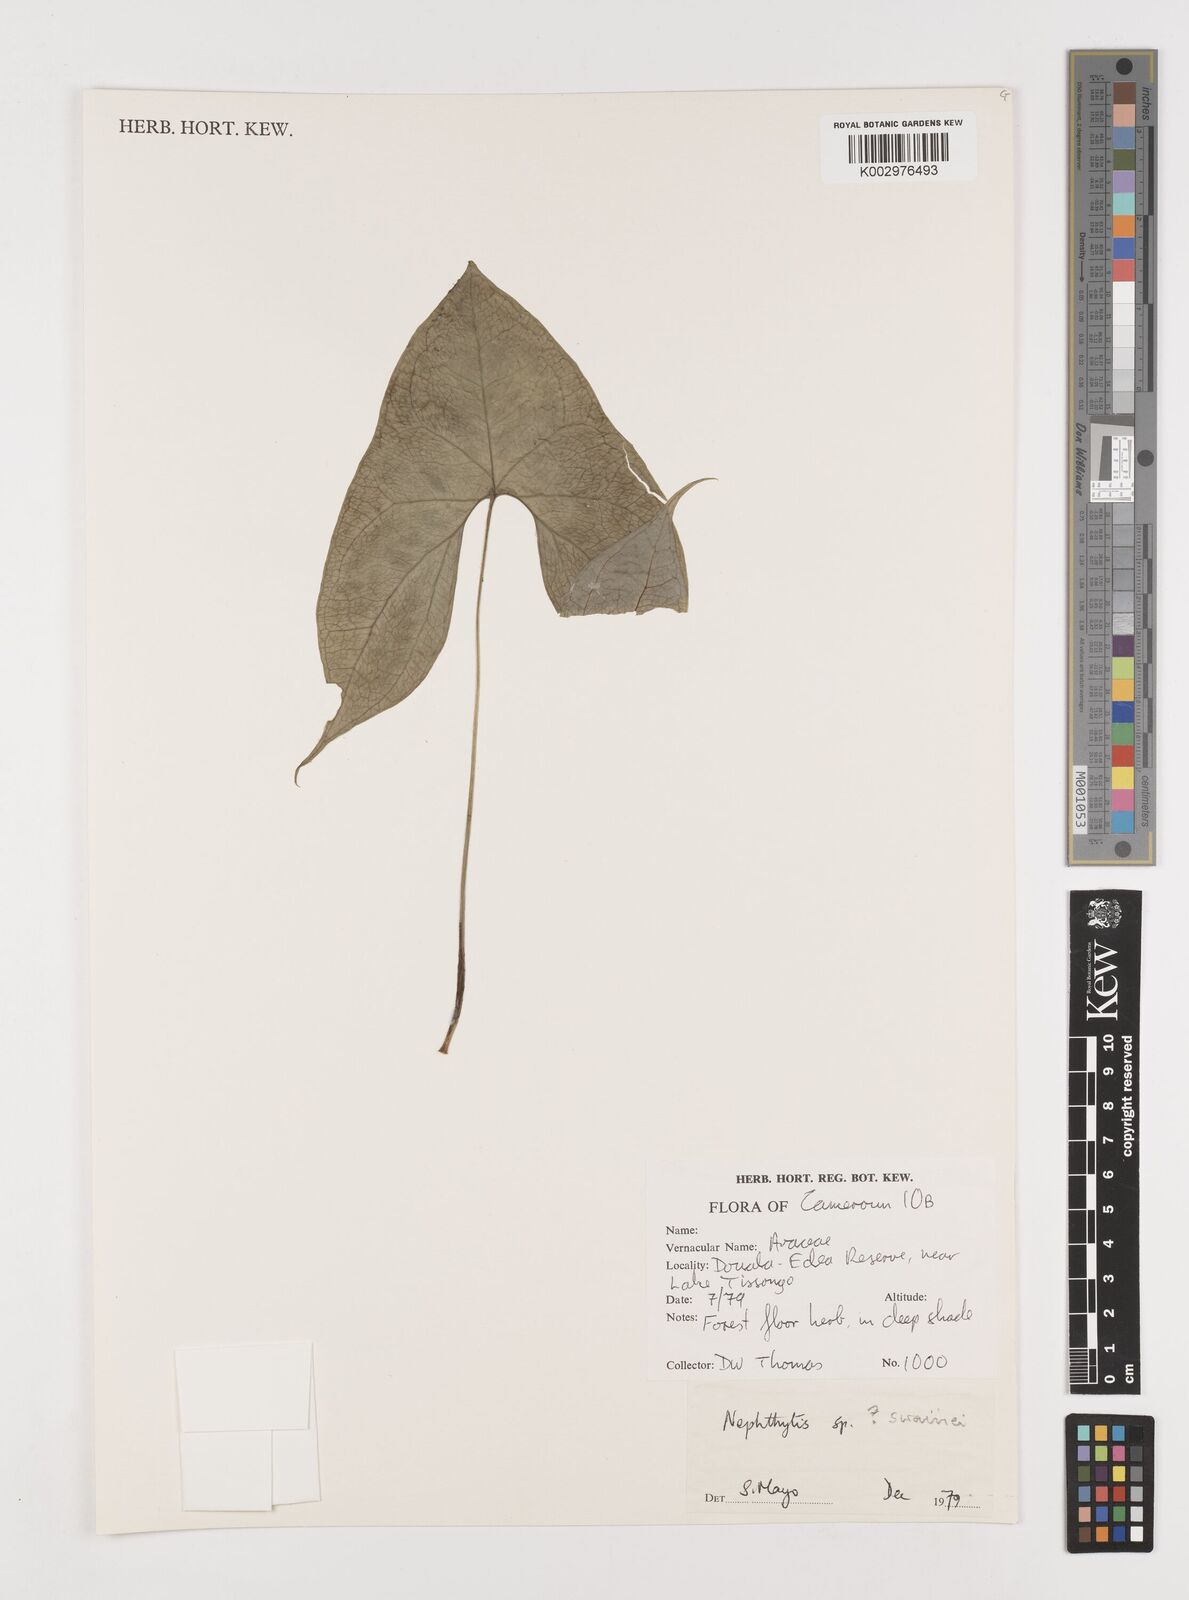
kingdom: Plantae
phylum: Tracheophyta
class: Liliopsida
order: Alismatales
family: Araceae
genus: Nephthytis
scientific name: Nephthytis swainei
